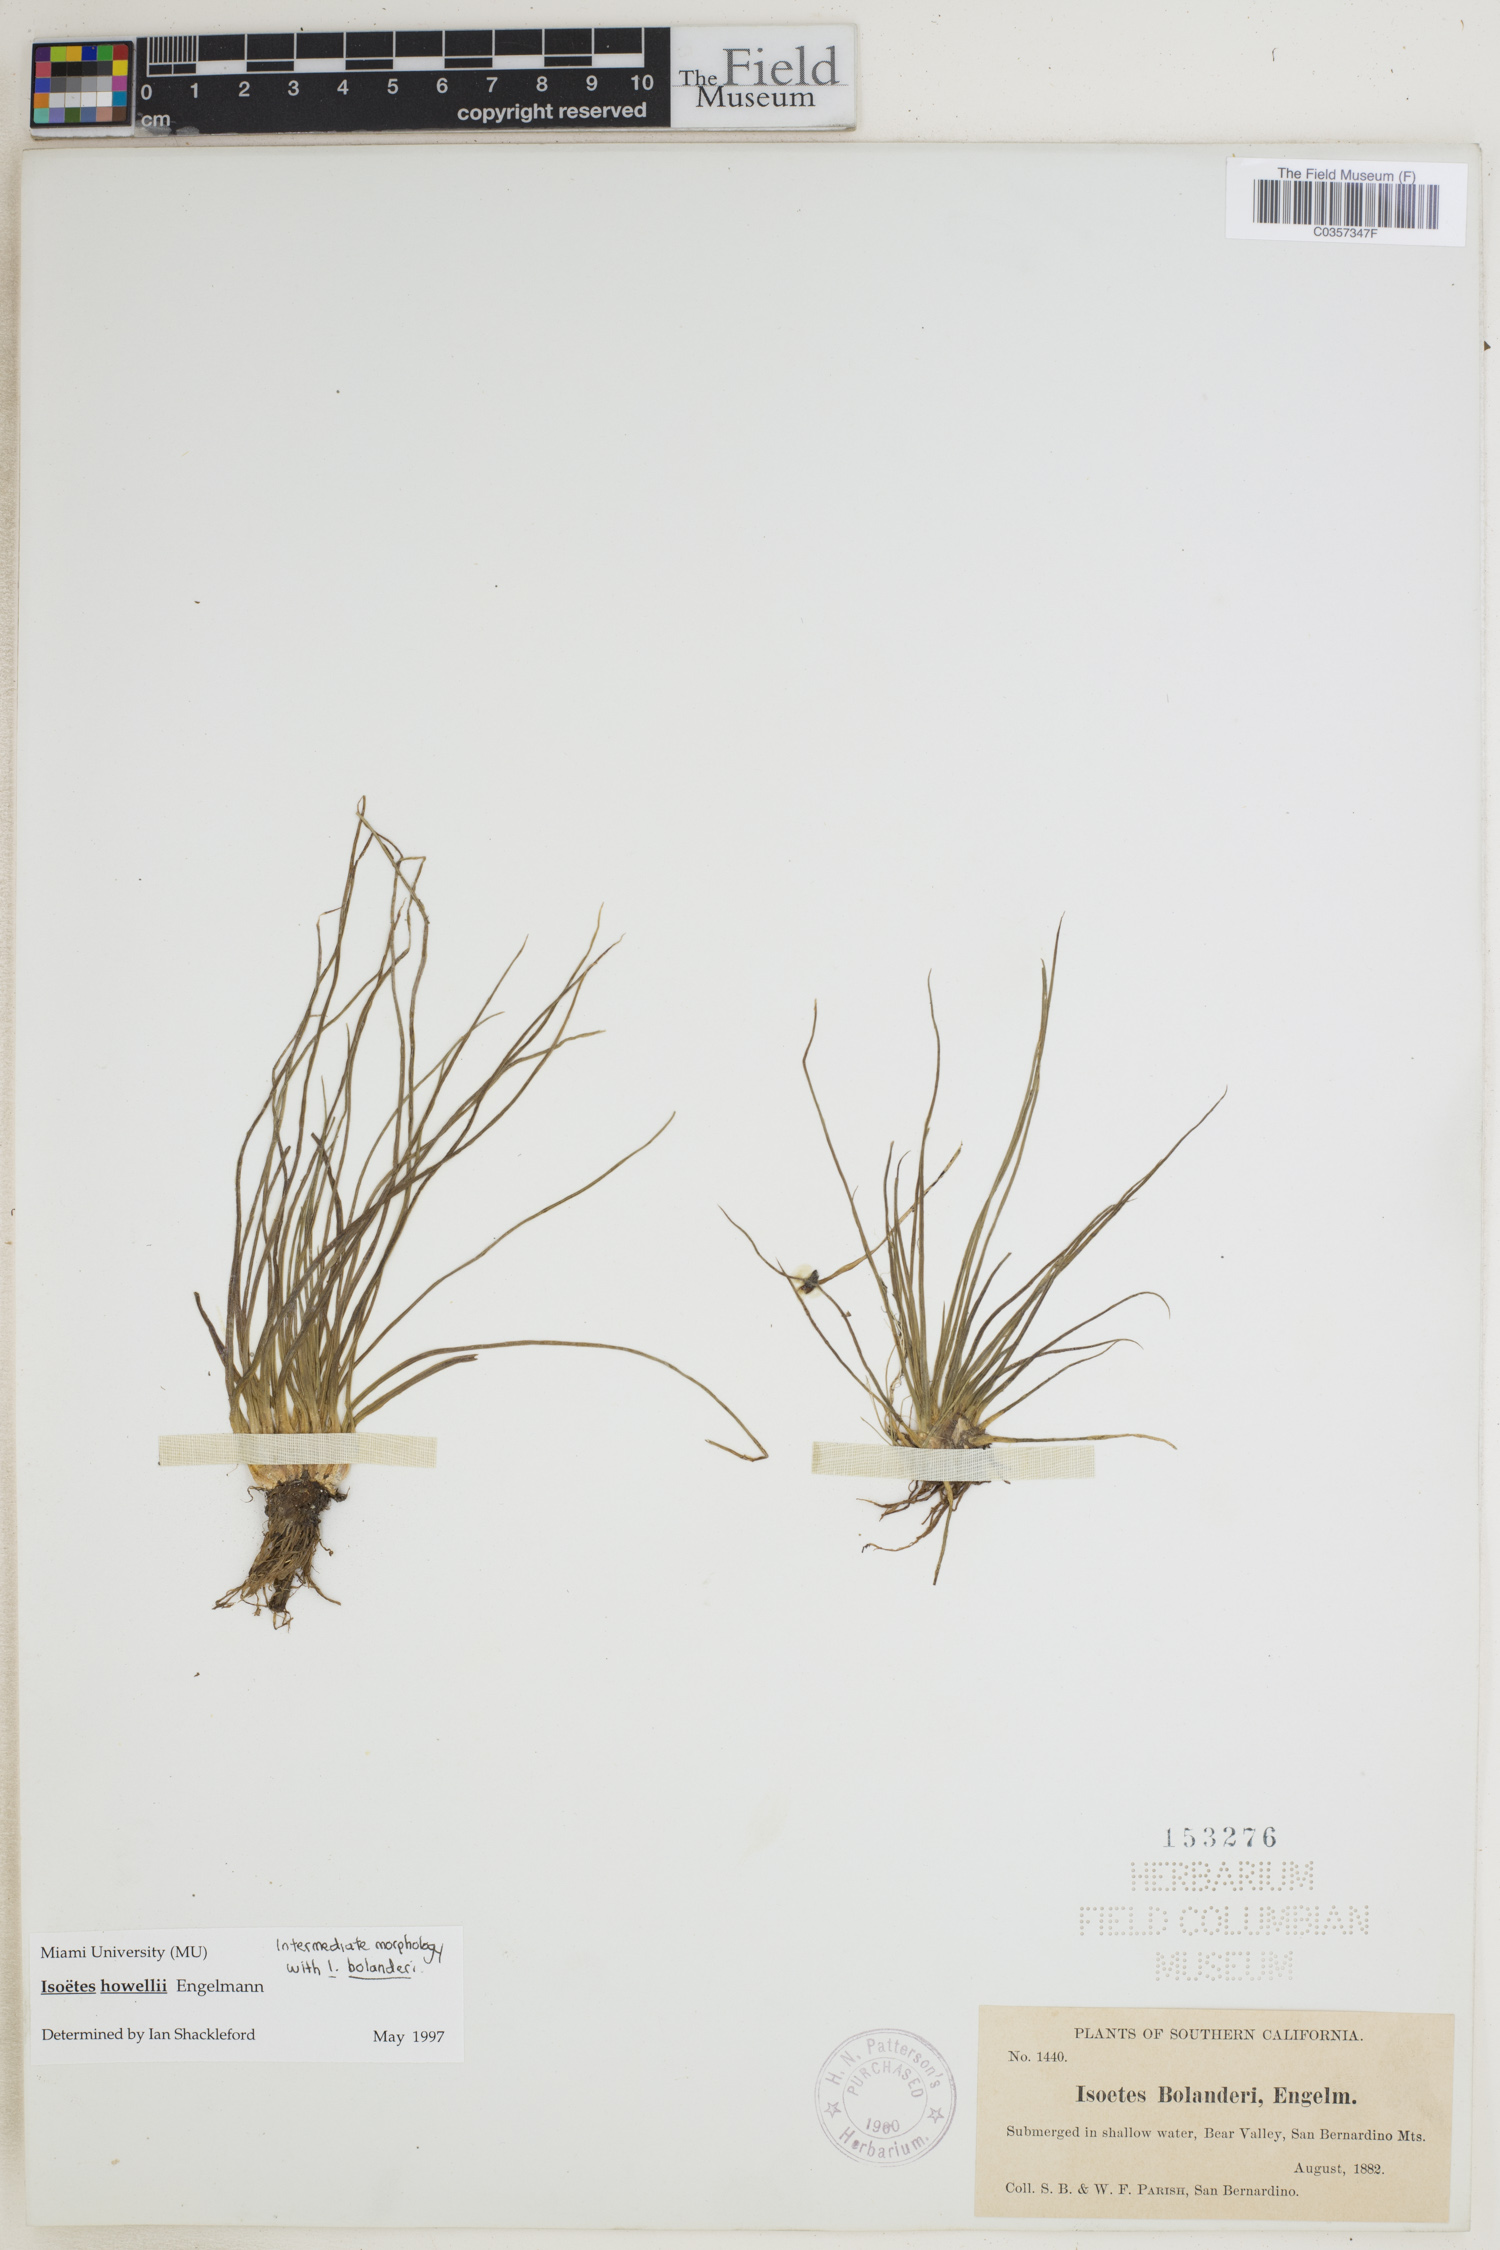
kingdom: Plantae
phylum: Tracheophyta
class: Lycopodiopsida
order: Isoetales
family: Isoetaceae
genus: Isoetes
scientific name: Isoetes howellii
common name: Howell's quillwort
